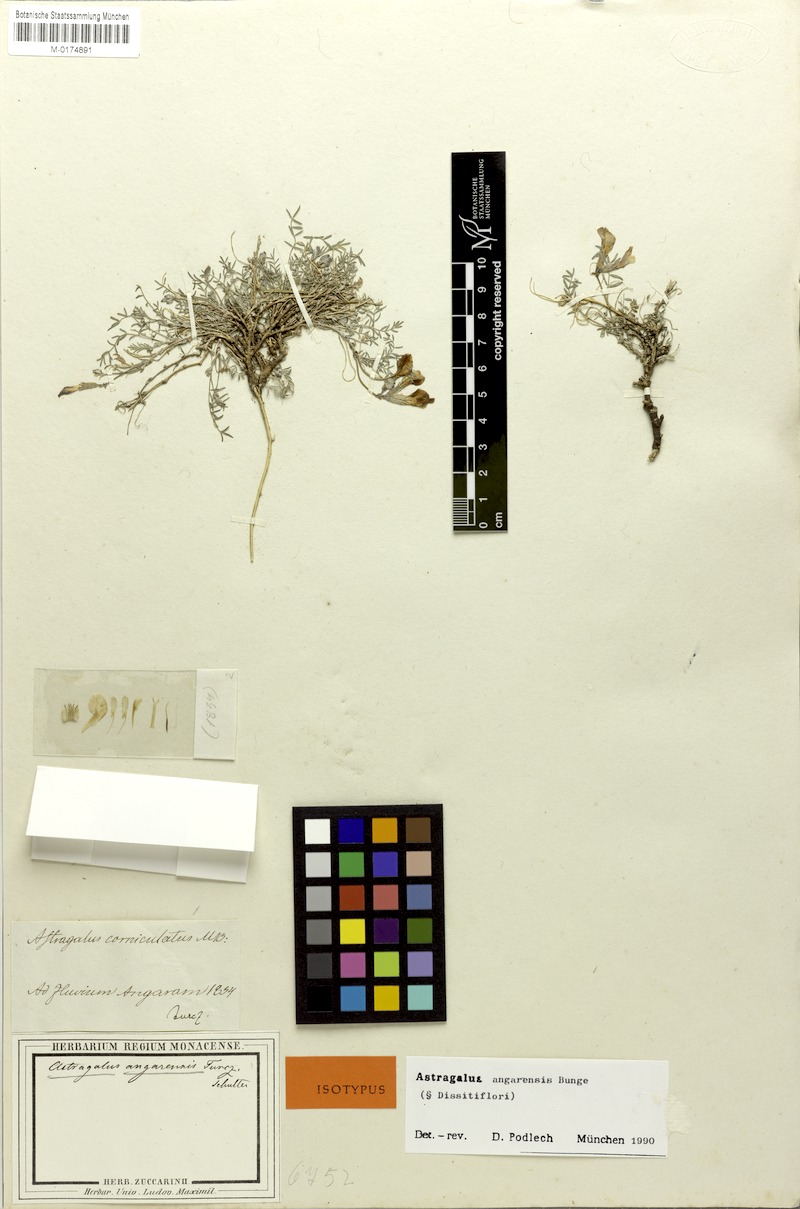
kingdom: Plantae
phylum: Tracheophyta
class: Magnoliopsida
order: Fabales
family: Fabaceae
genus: Astragalus
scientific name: Astragalus angarensis
